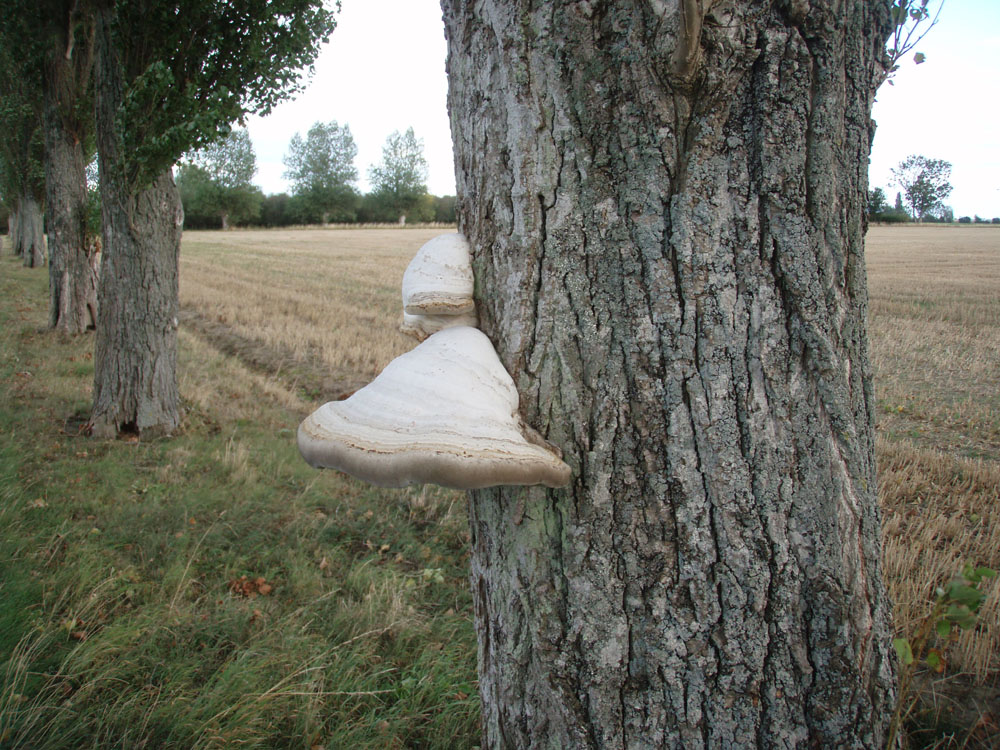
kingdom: Fungi
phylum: Basidiomycota
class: Agaricomycetes
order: Polyporales
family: Polyporaceae
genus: Fomes
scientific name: Fomes fomentarius
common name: tøndersvamp
